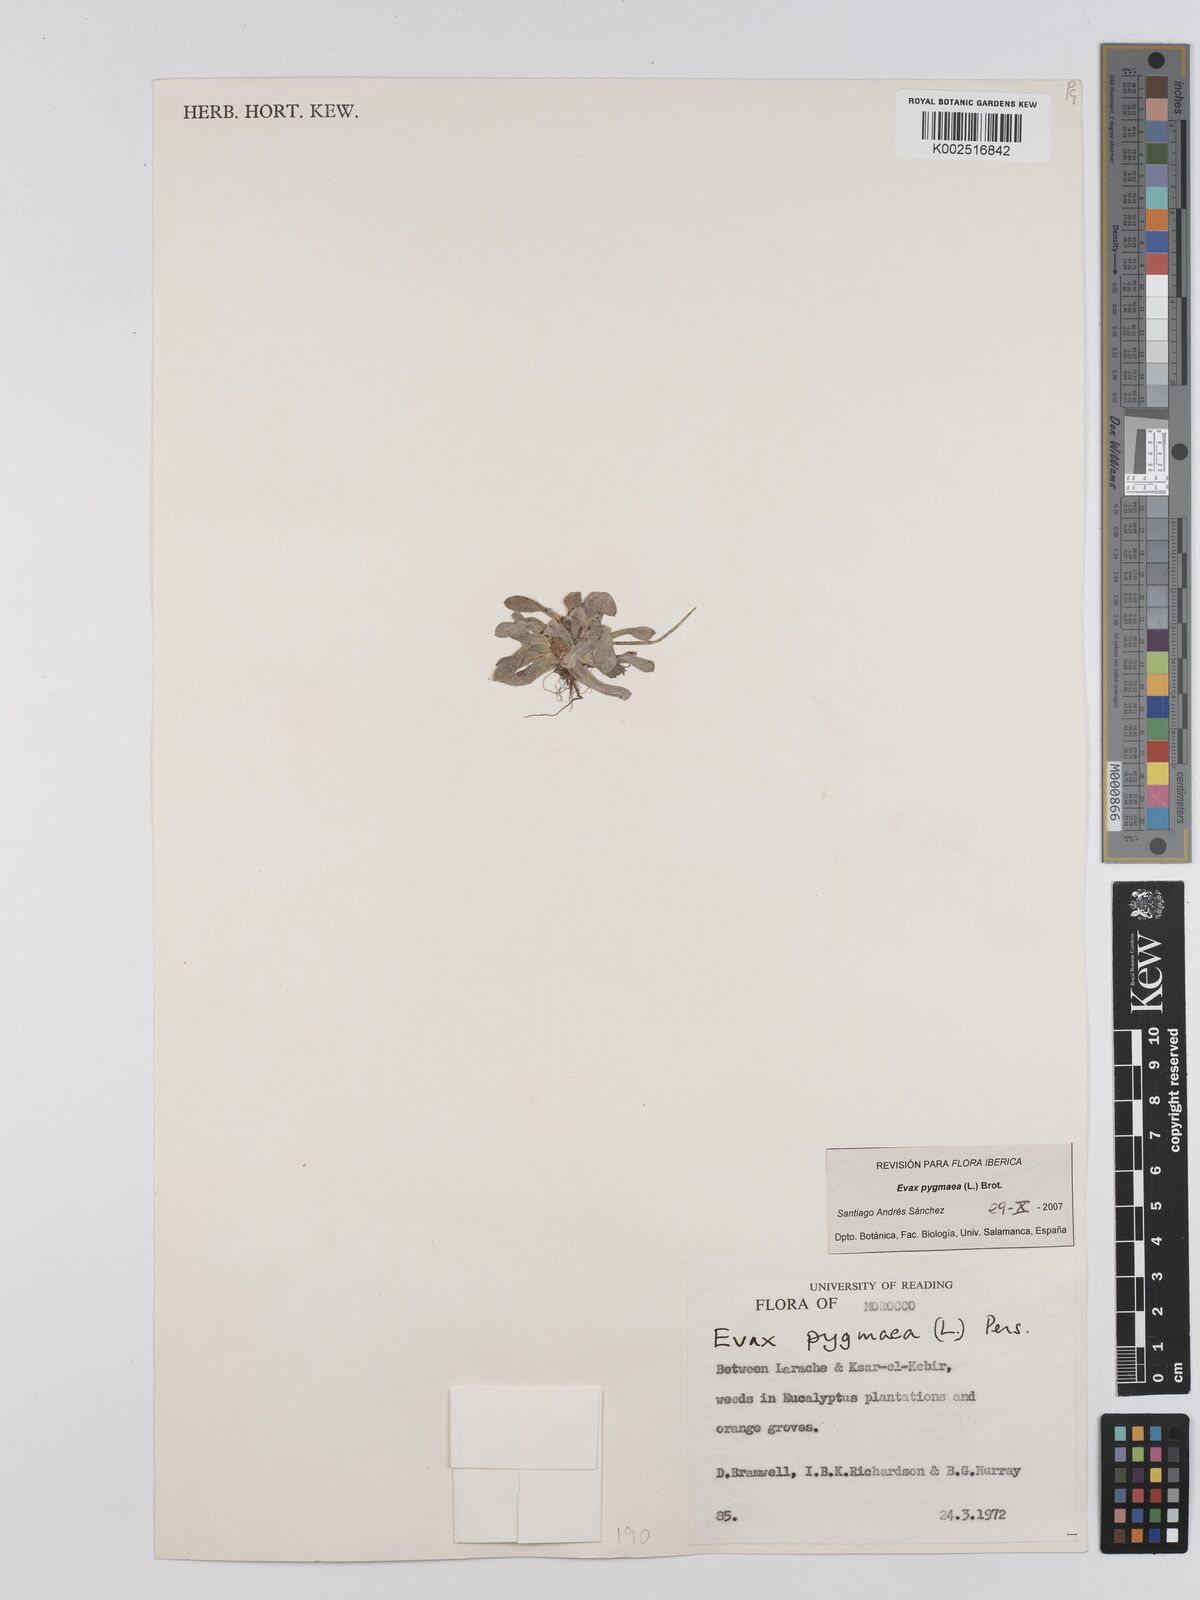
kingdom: Plantae
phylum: Tracheophyta
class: Magnoliopsida
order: Asterales
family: Asteraceae
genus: Filago
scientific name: Filago pygmaea
